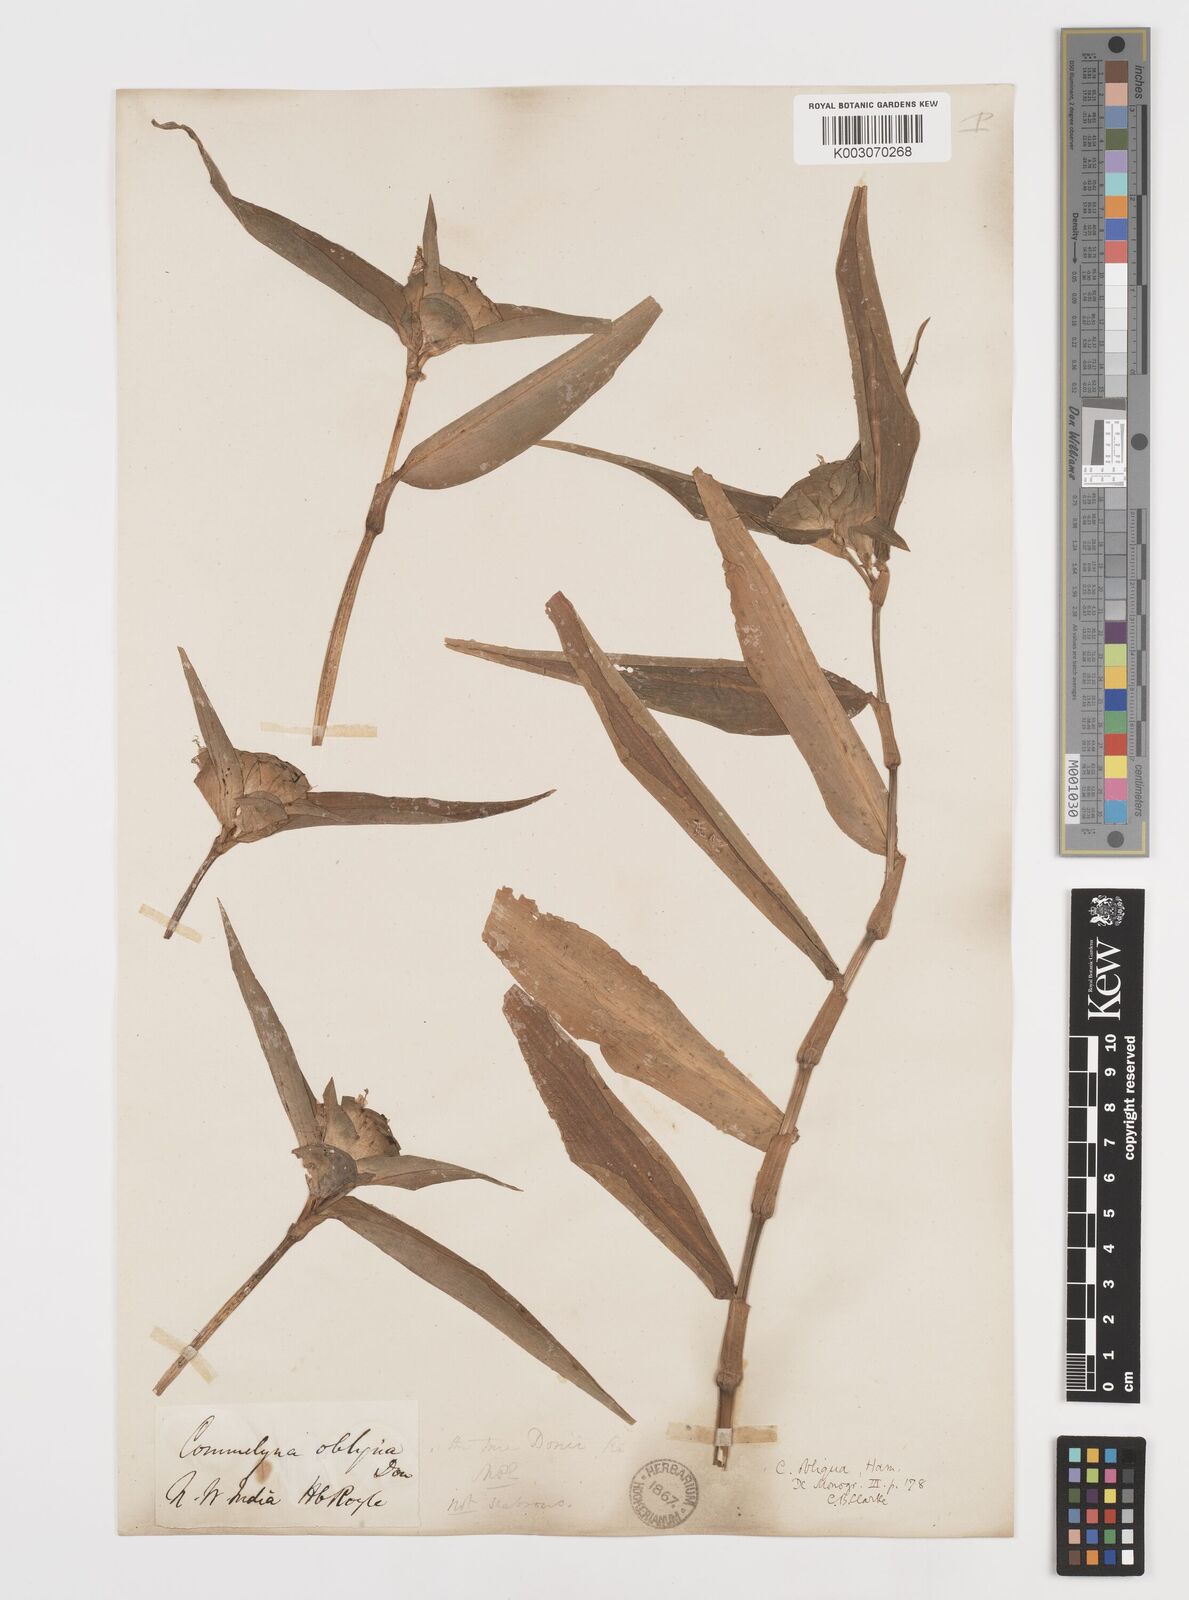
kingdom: Plantae
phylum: Tracheophyta
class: Liliopsida
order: Commelinales
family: Commelinaceae
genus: Commelina
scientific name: Commelina paludosa
